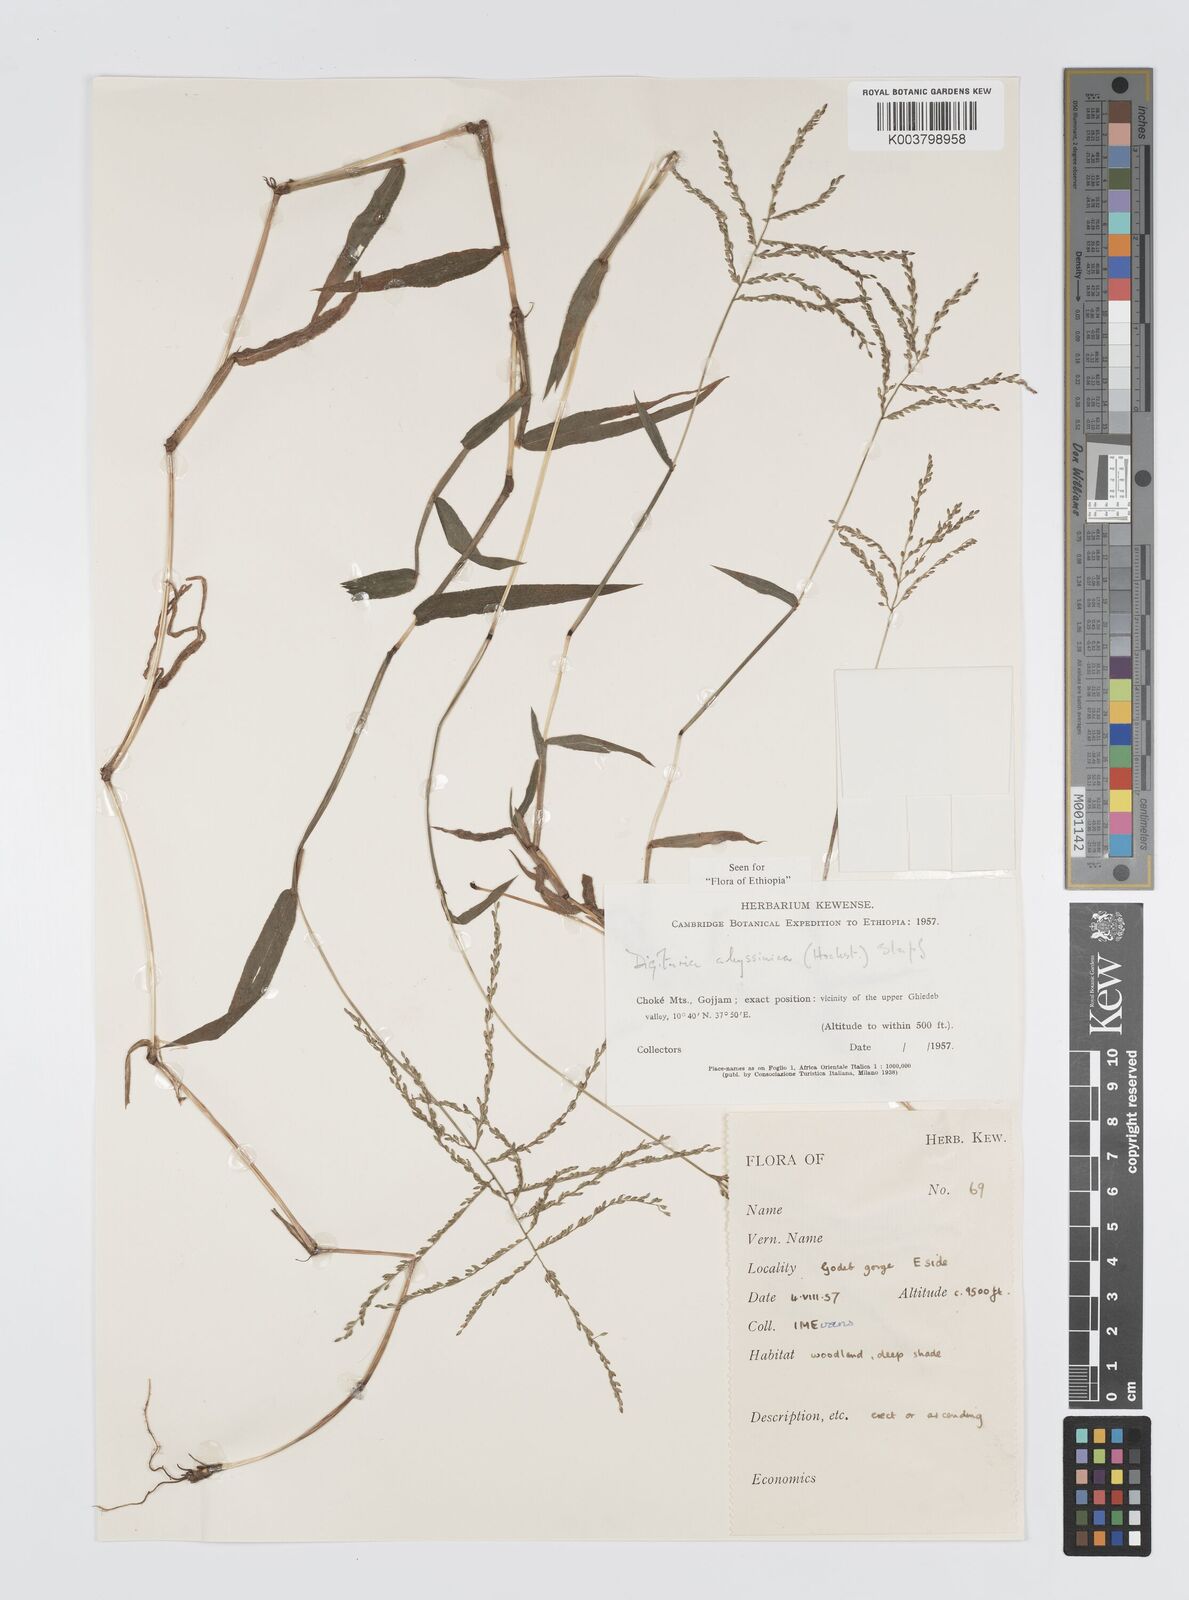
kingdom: Plantae
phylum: Tracheophyta
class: Liliopsida
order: Poales
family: Poaceae
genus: Digitaria
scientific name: Digitaria abyssinica
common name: African couchgrass
